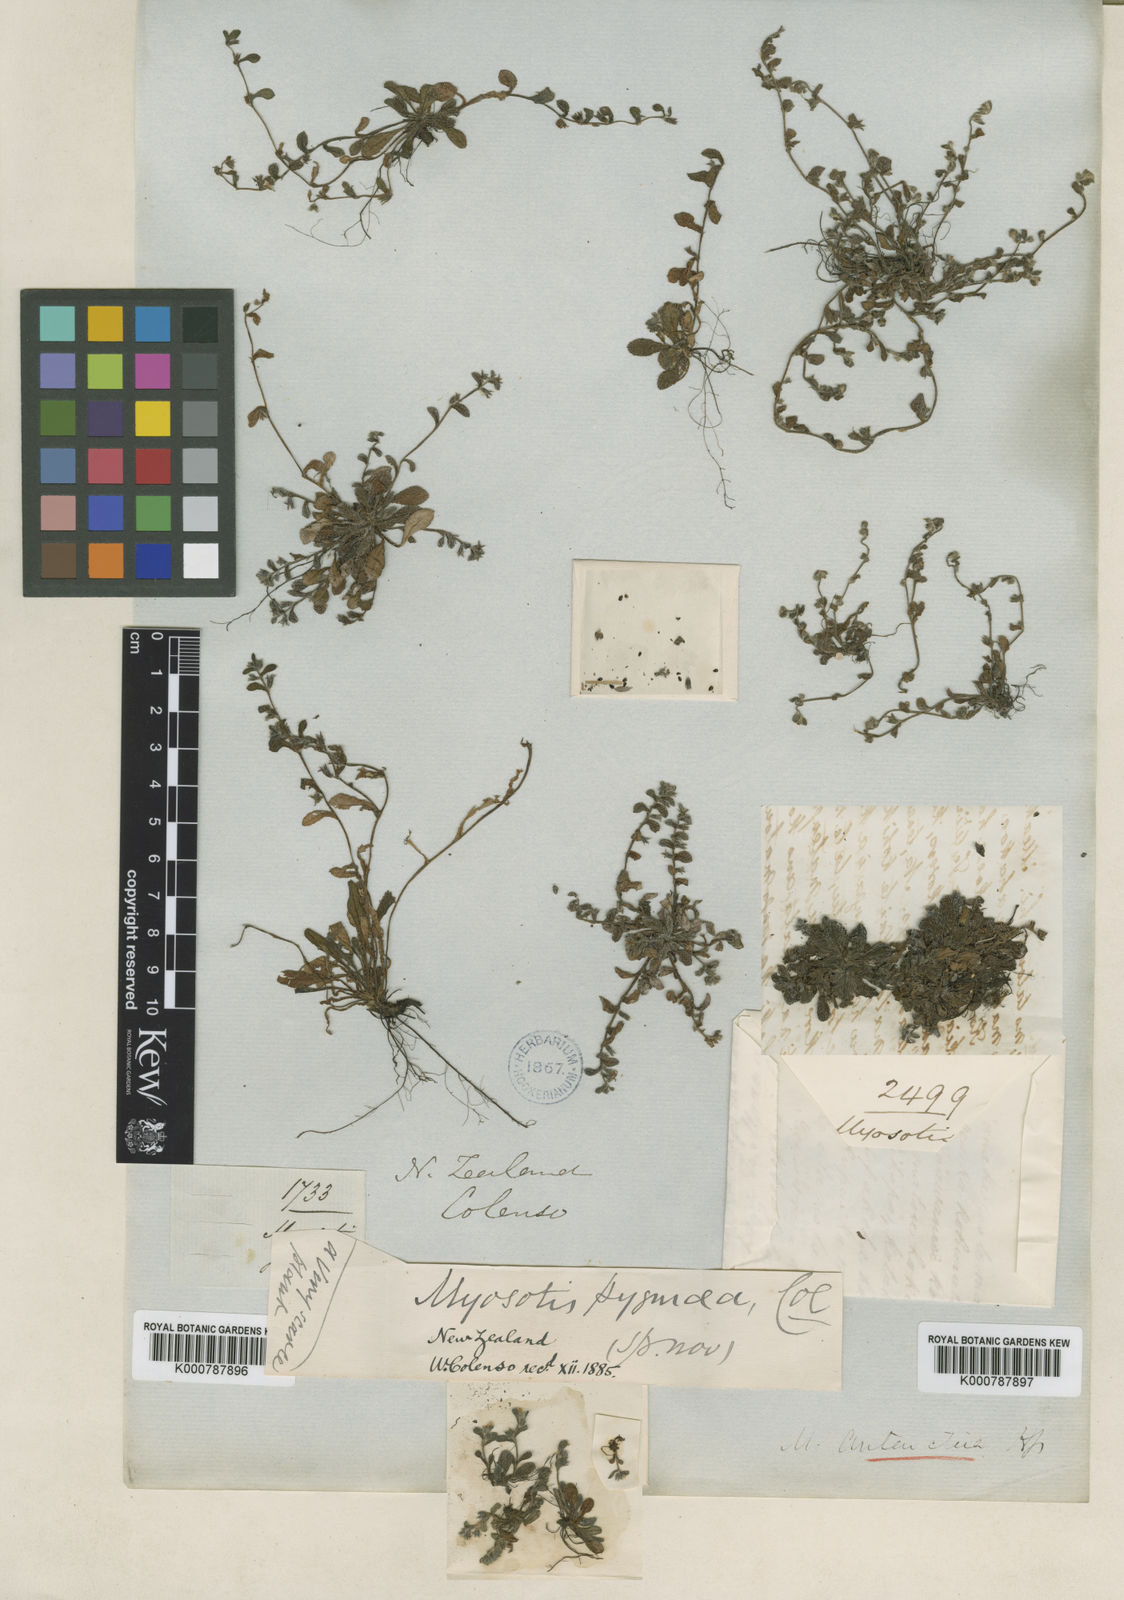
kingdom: Plantae
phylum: Tracheophyta
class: Magnoliopsida
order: Boraginales
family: Boraginaceae
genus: Myosotis
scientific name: Myosotis antarctica
